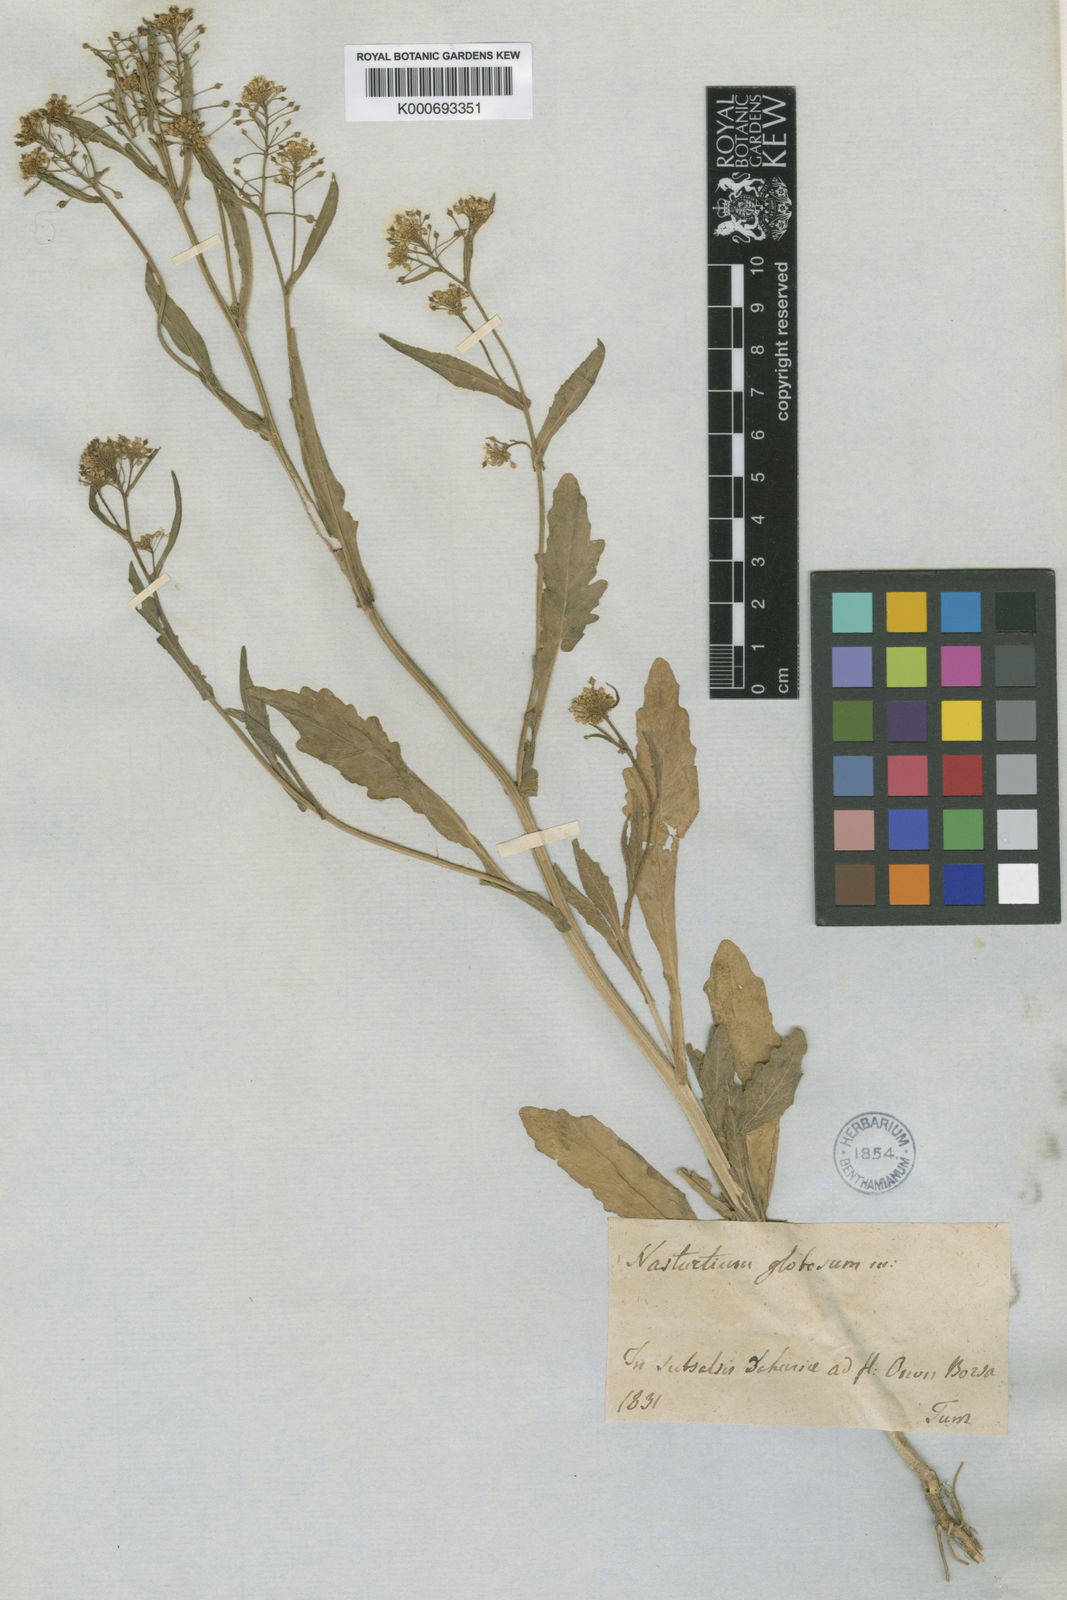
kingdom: Plantae
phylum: Tracheophyta
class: Magnoliopsida
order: Brassicales
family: Brassicaceae
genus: Rorippa
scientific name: Rorippa
